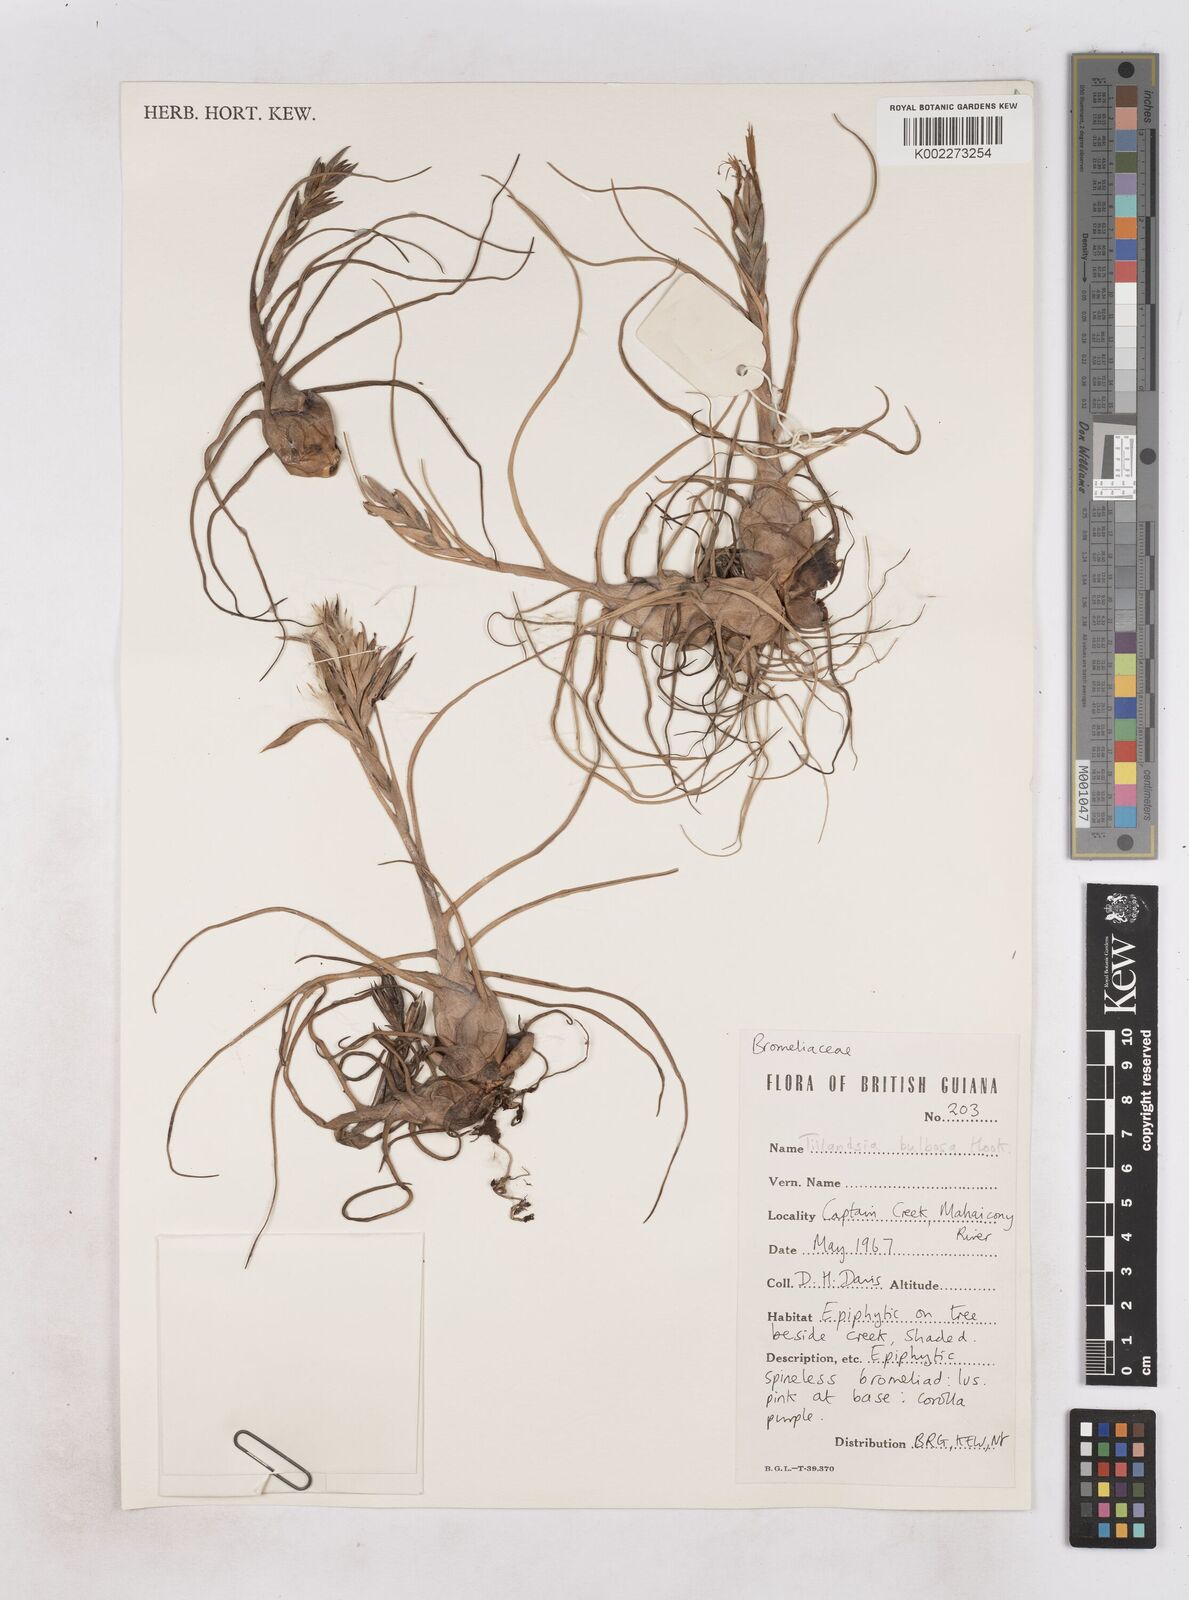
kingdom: Plantae
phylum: Tracheophyta
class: Liliopsida
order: Poales
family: Bromeliaceae
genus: Tillandsia
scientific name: Tillandsia bulbosa
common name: Bulbous airplant
